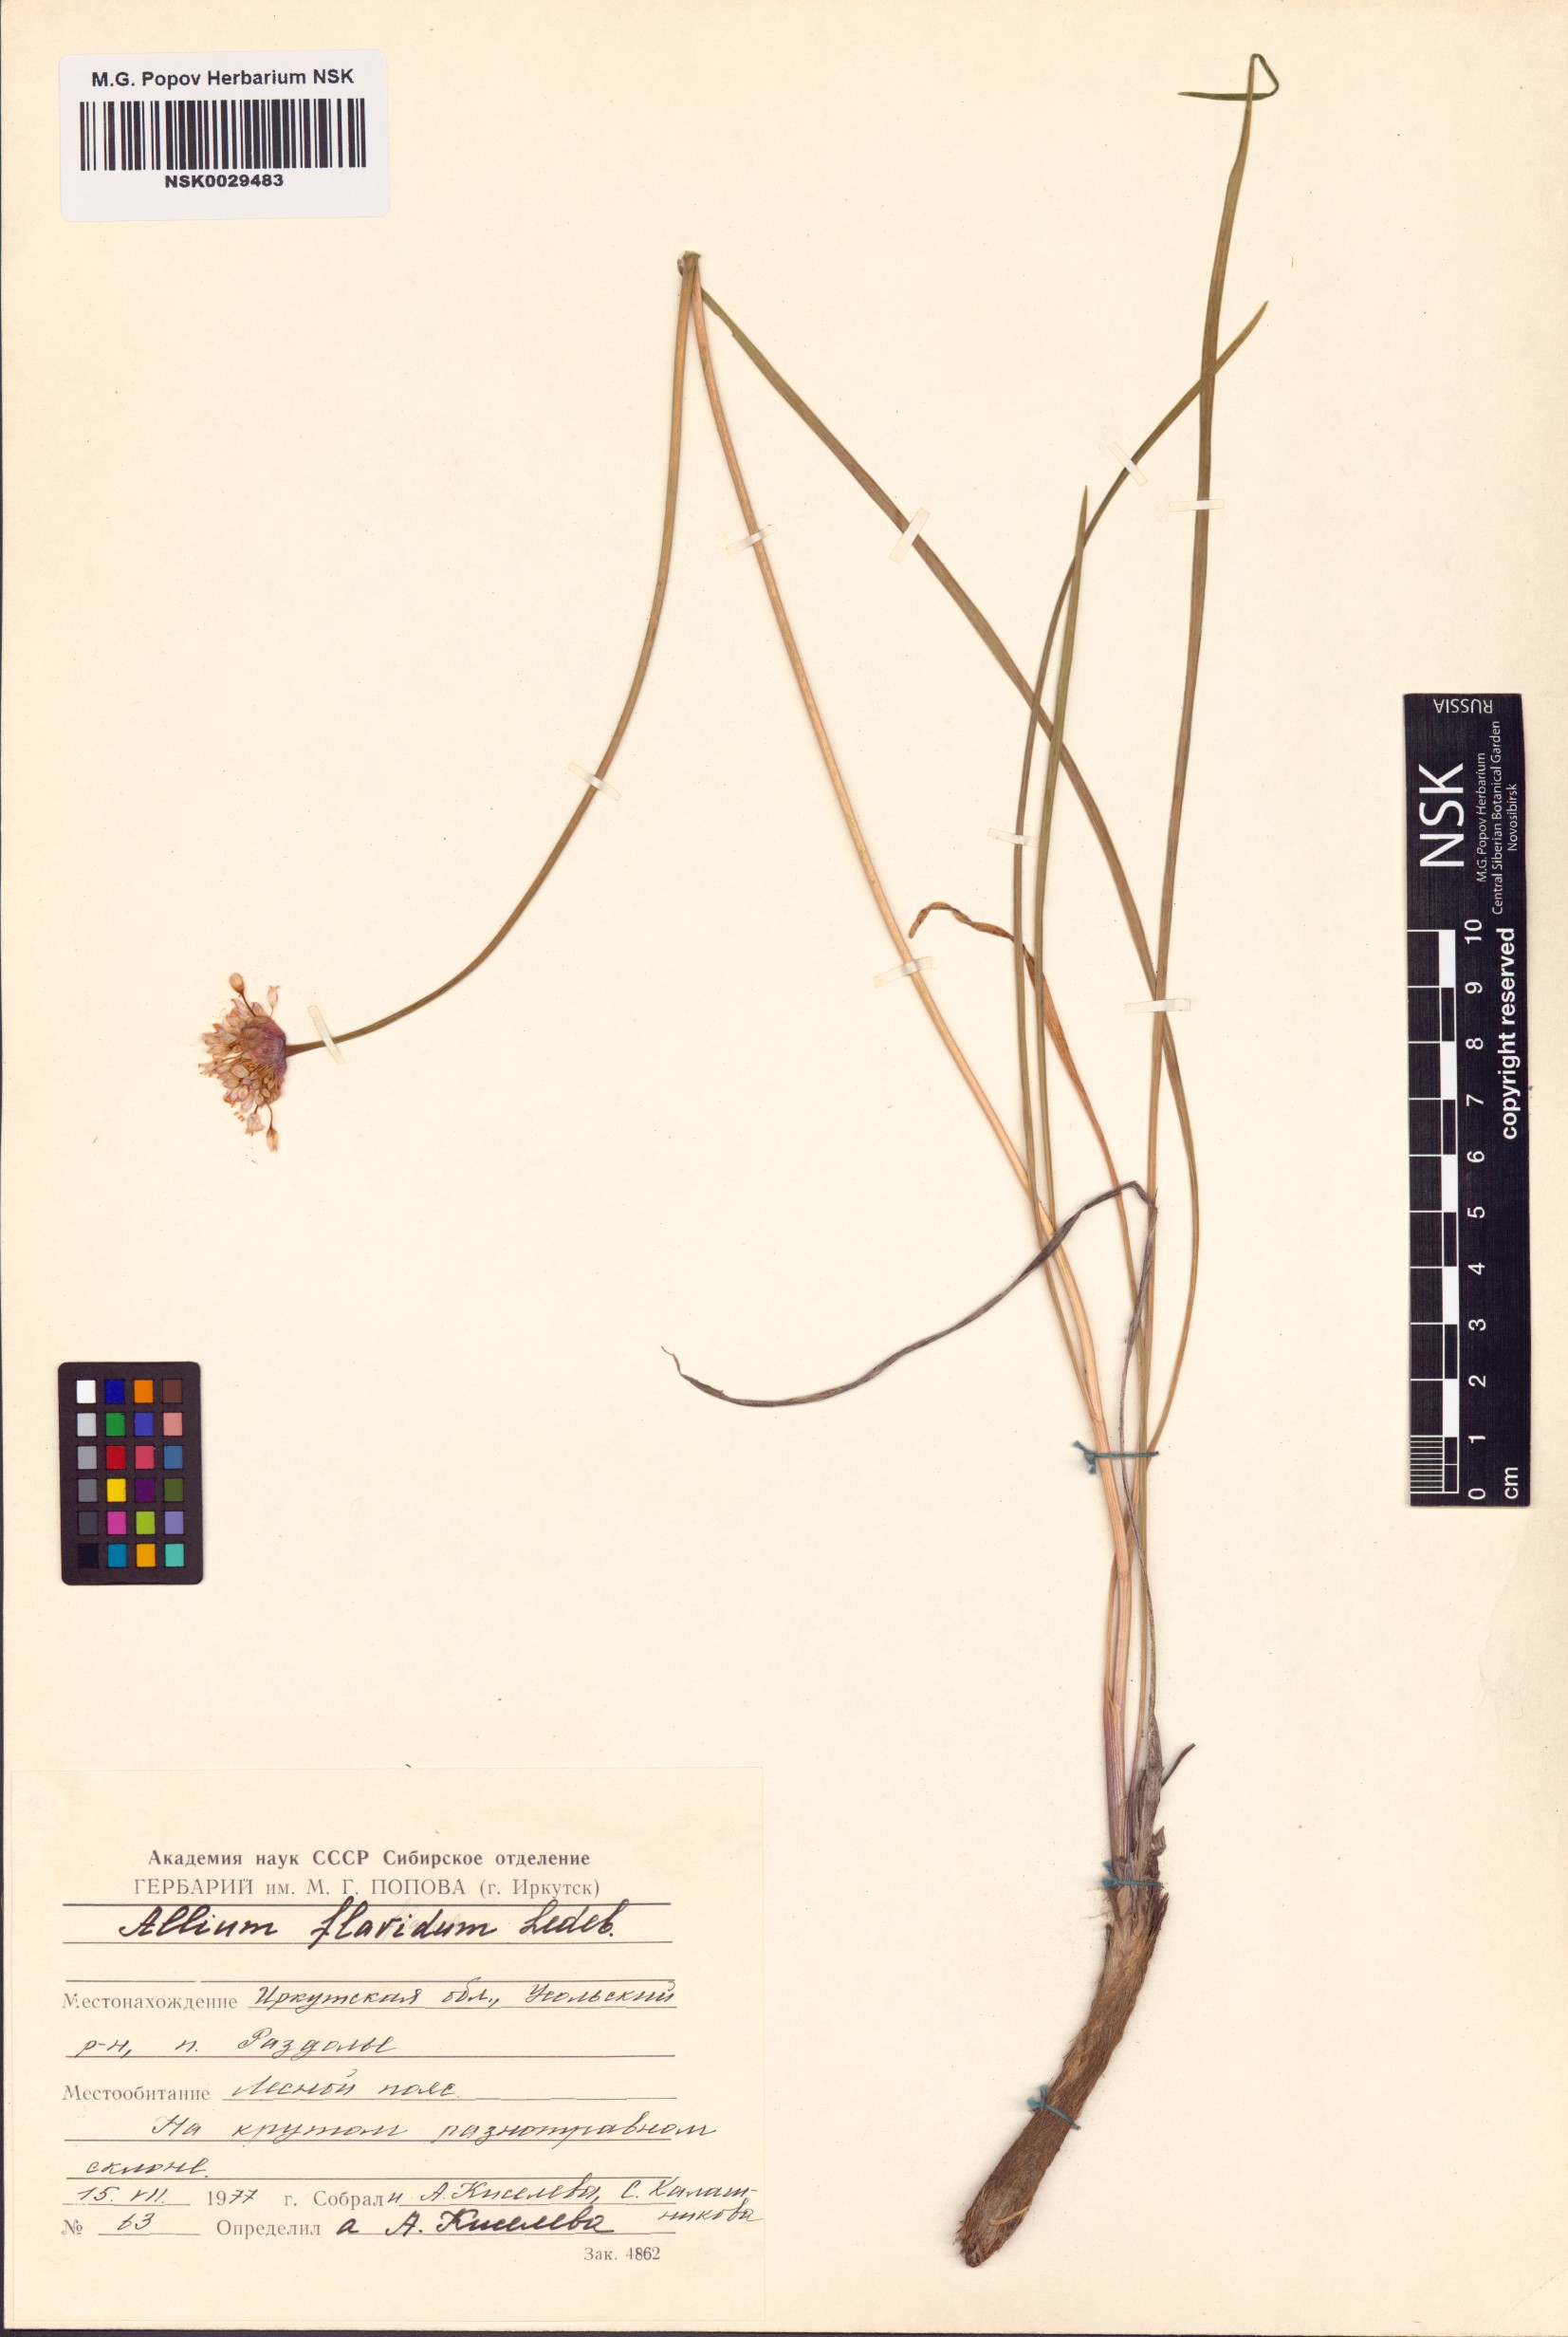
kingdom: Plantae
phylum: Tracheophyta
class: Liliopsida
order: Asparagales
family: Amaryllidaceae
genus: Allium
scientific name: Allium flavidum
